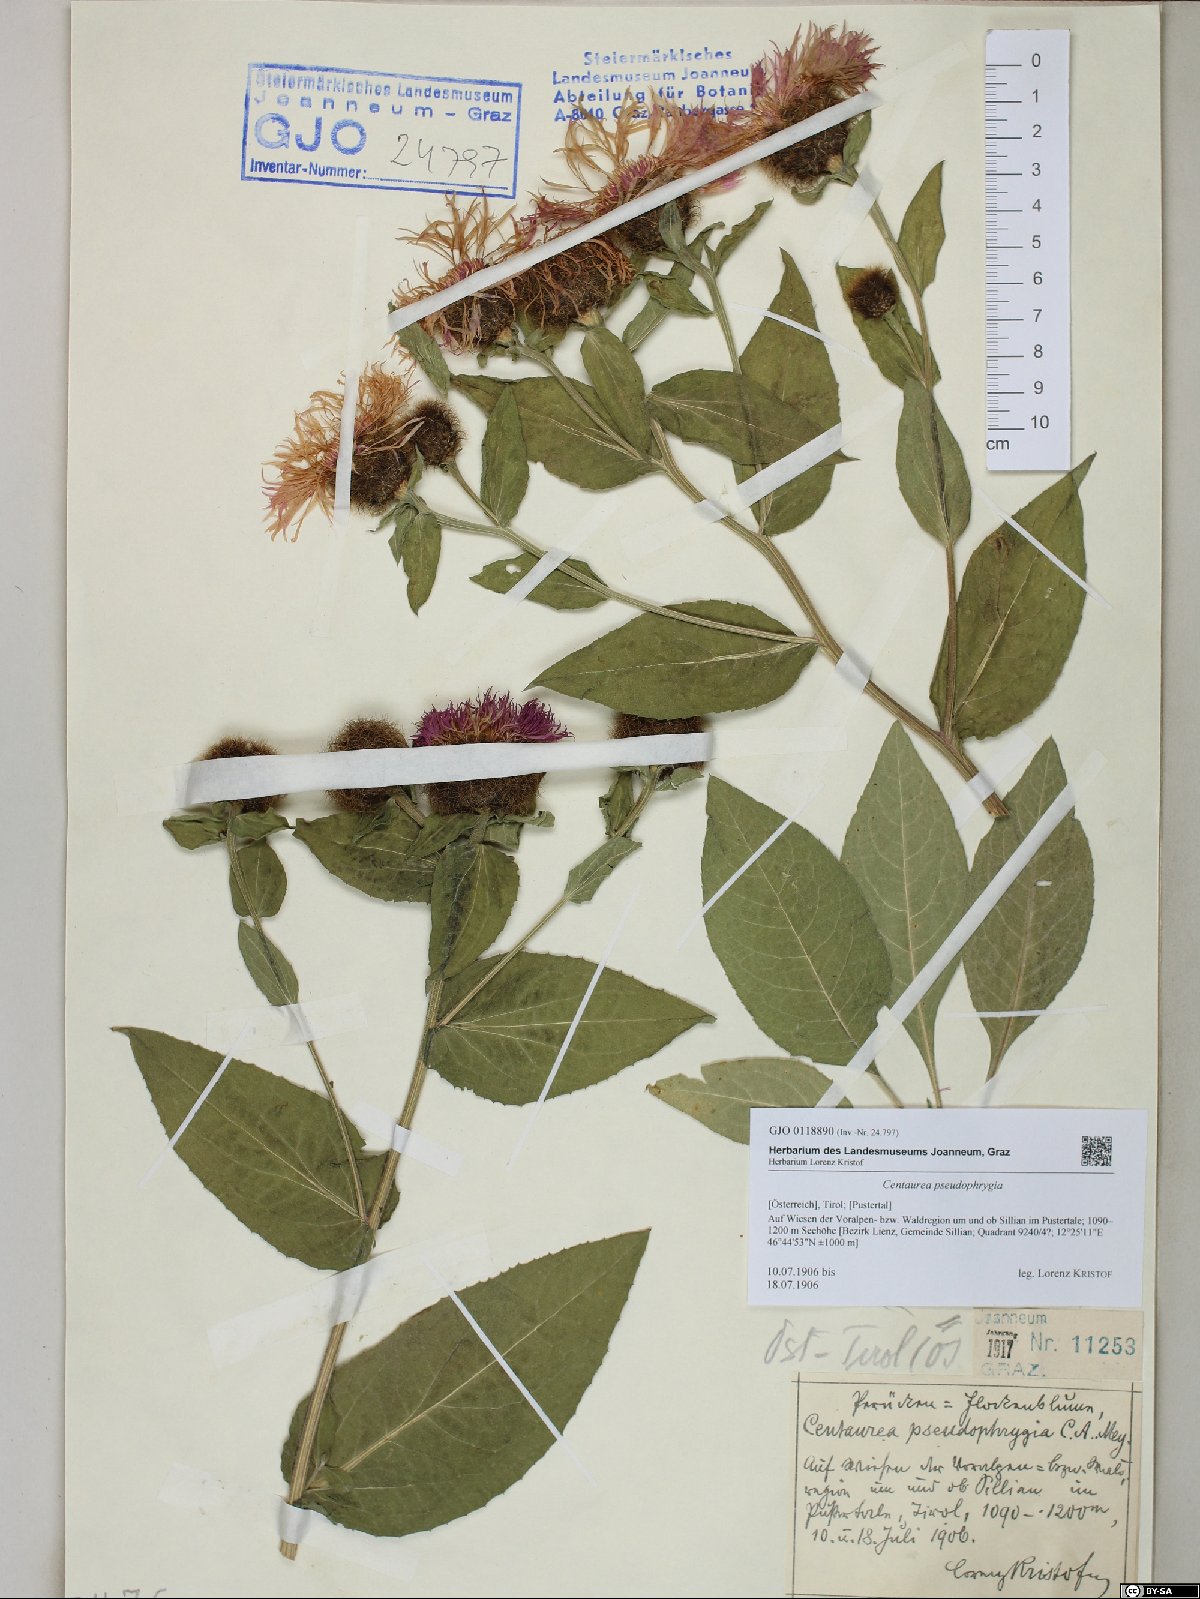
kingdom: Plantae
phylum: Tracheophyta
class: Magnoliopsida
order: Asterales
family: Asteraceae
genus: Centaurea
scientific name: Centaurea pseudophrygia
